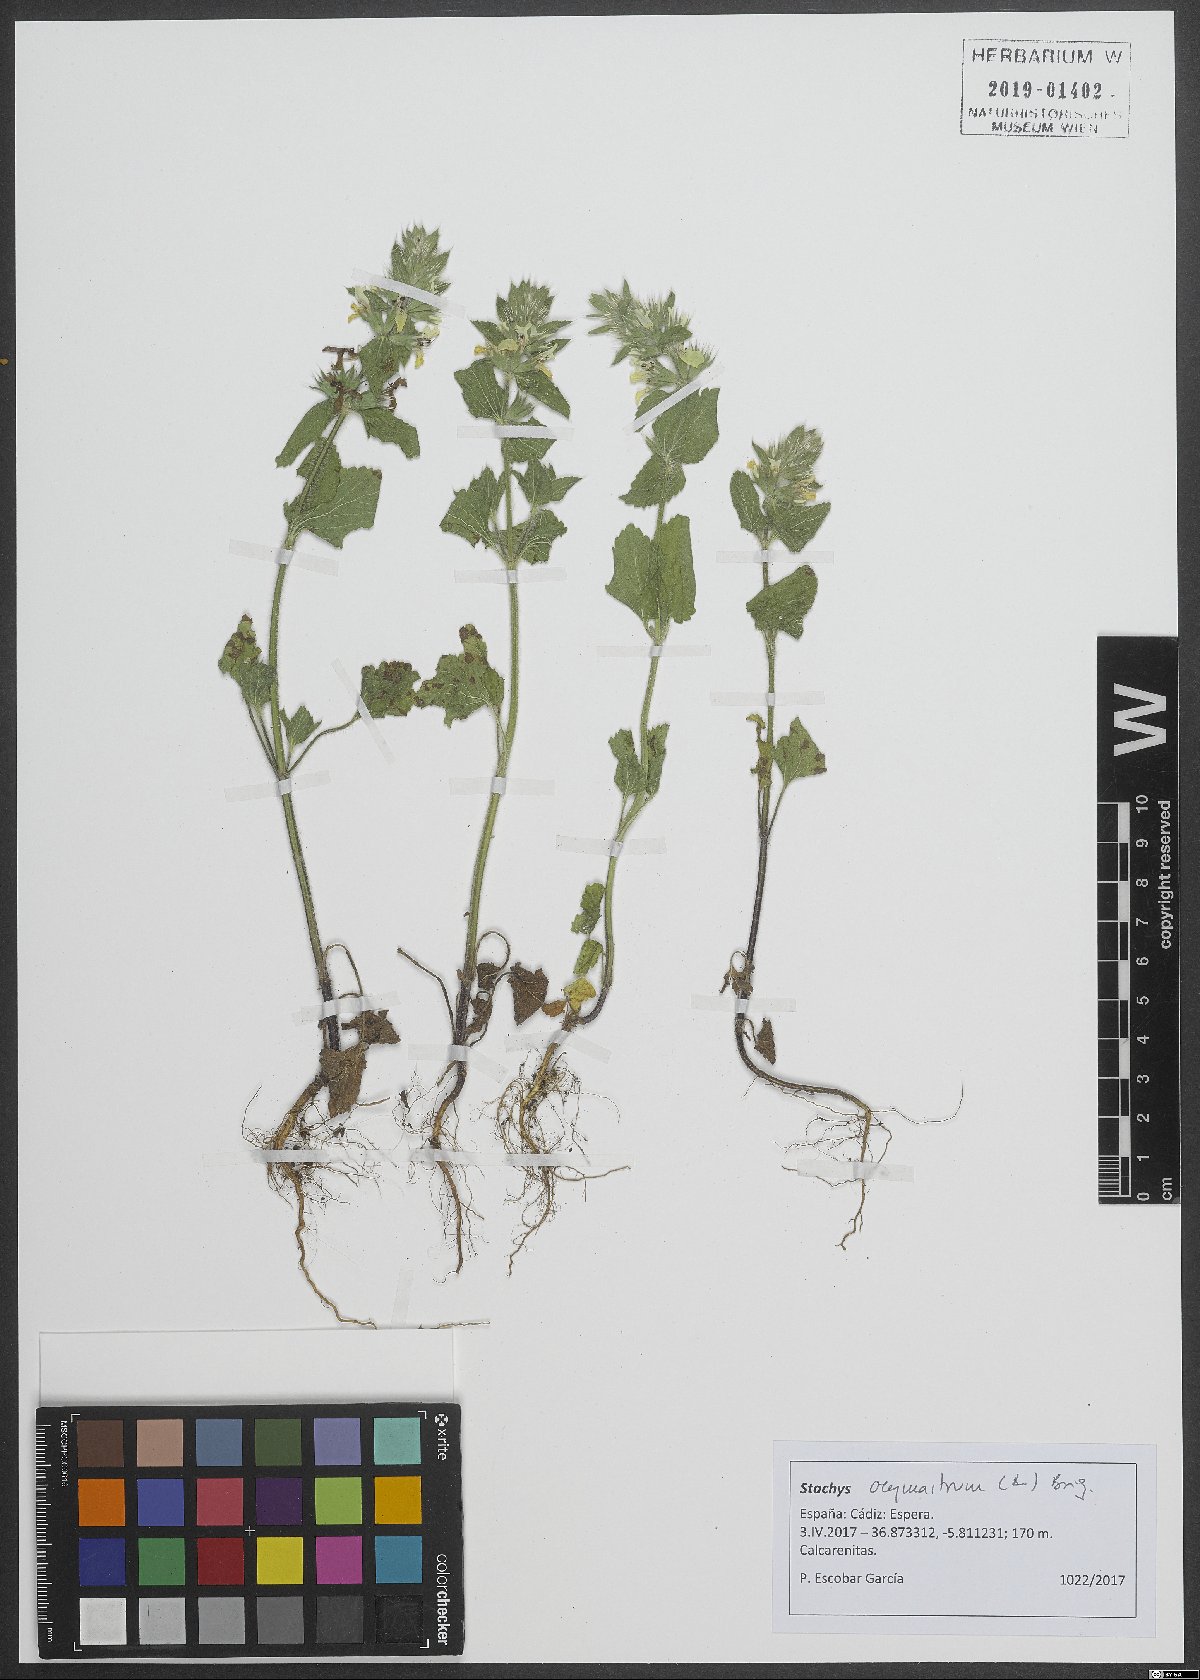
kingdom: Plantae
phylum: Tracheophyta
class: Magnoliopsida
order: Lamiales
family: Lamiaceae
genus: Stachys
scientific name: Stachys ocymastrum
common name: Italian hedgenettle
